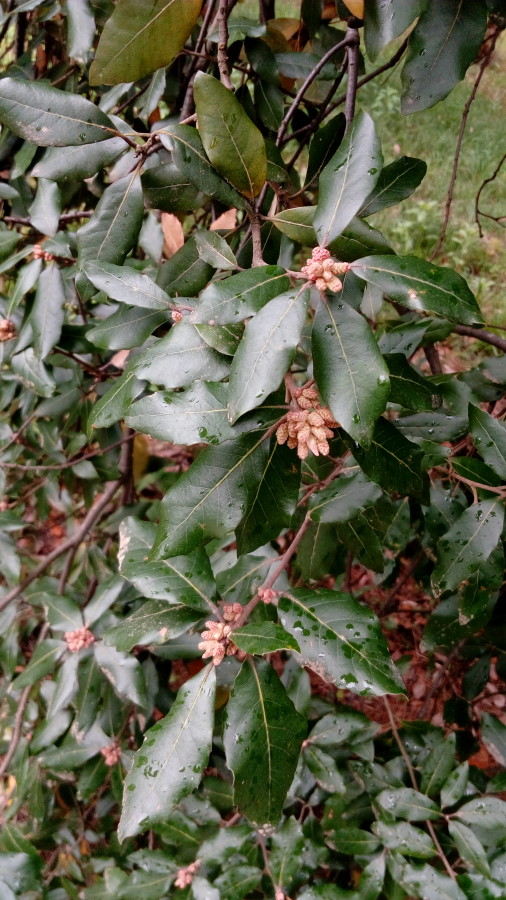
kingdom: Plantae
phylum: Tracheophyta
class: Magnoliopsida
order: Fagales
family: Fagaceae
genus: Quercus
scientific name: Quercus ilex
